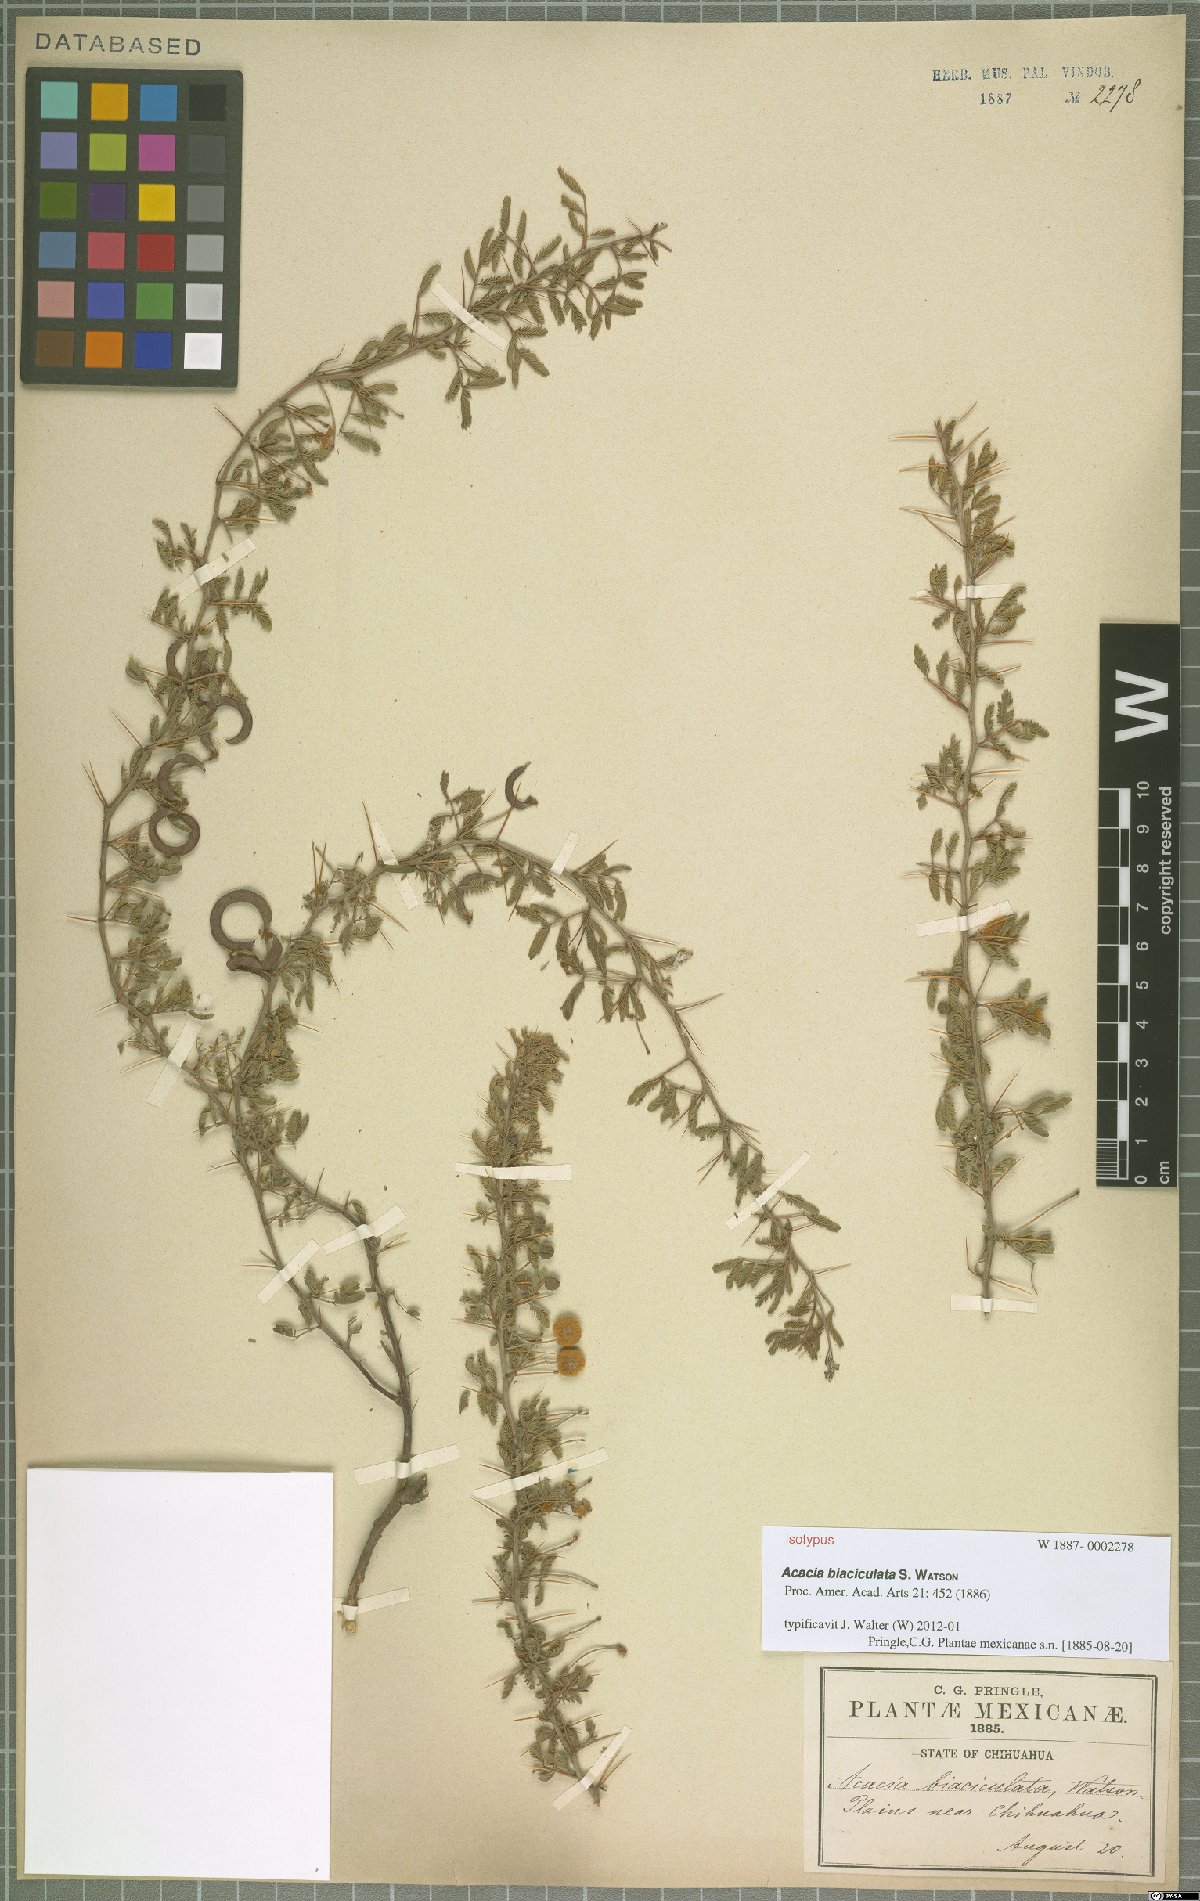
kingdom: Plantae
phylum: Tracheophyta
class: Magnoliopsida
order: Fabales
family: Fabaceae
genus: Vachellia
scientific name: Vachellia biaciculata
